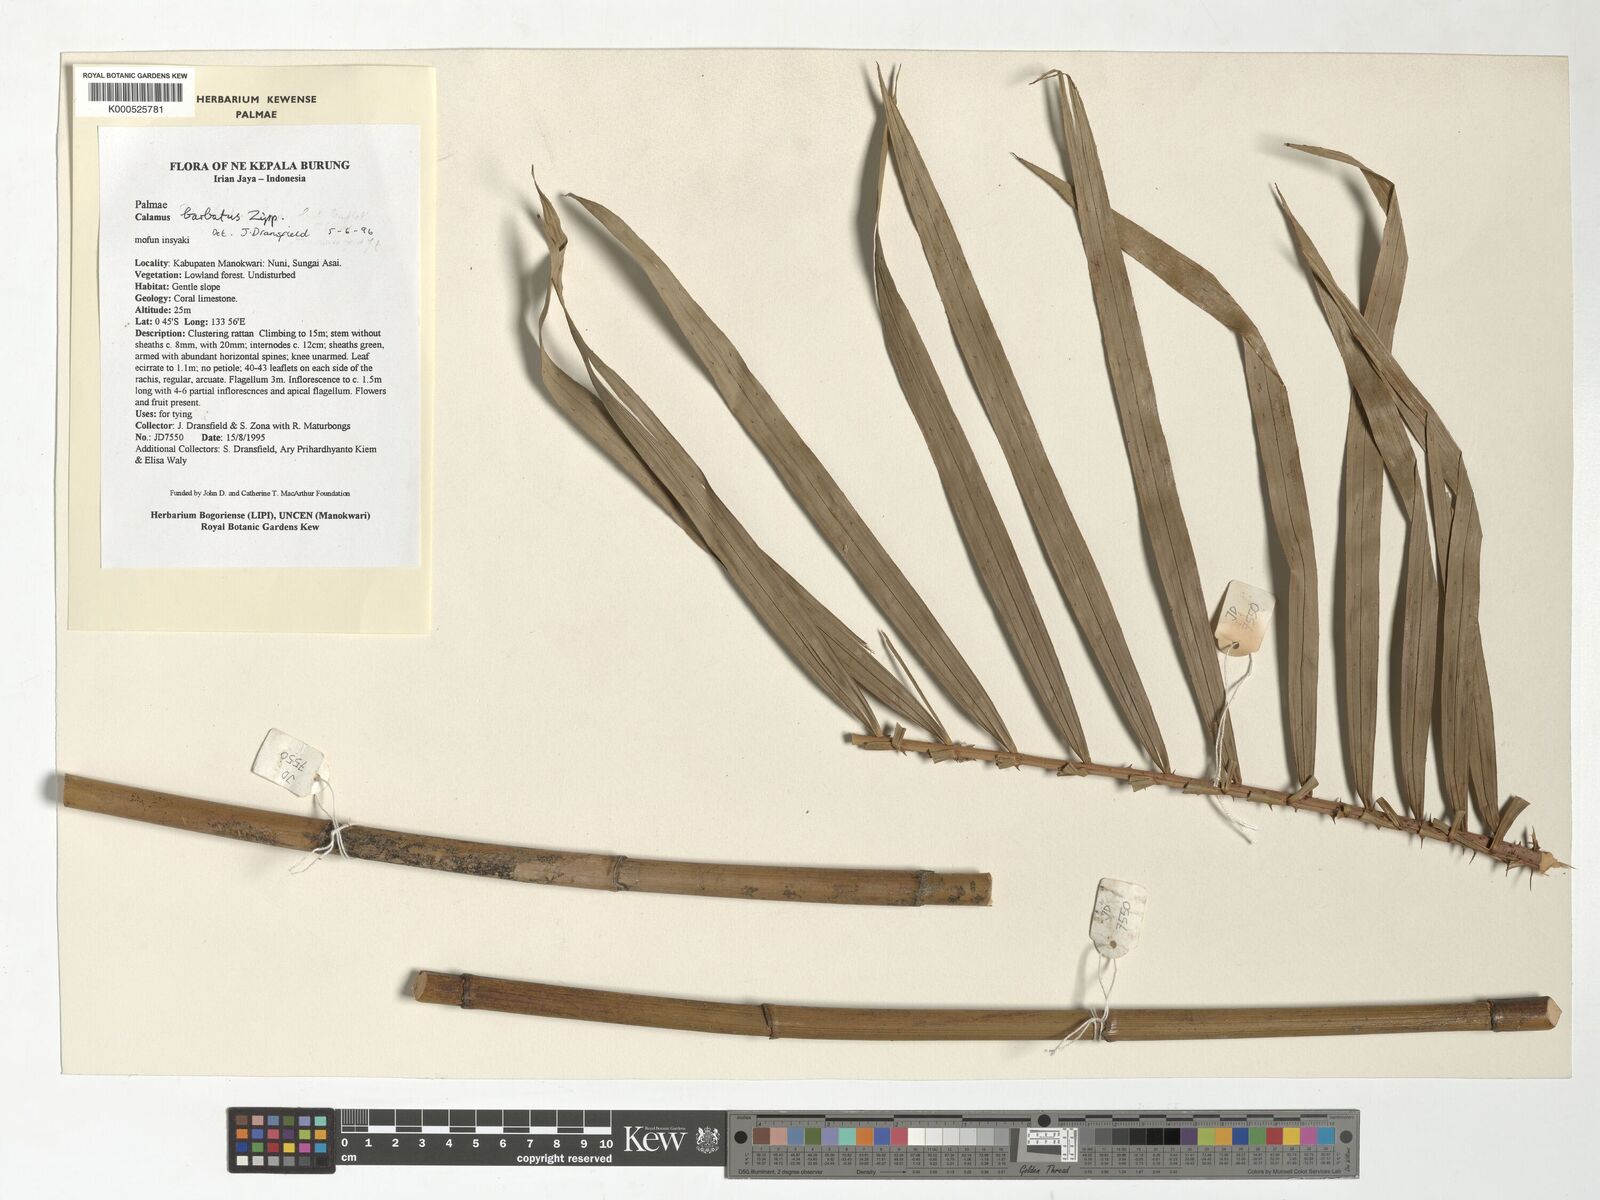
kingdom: Plantae
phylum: Tracheophyta
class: Liliopsida
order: Arecales
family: Arecaceae
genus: Calamus
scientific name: Calamus
